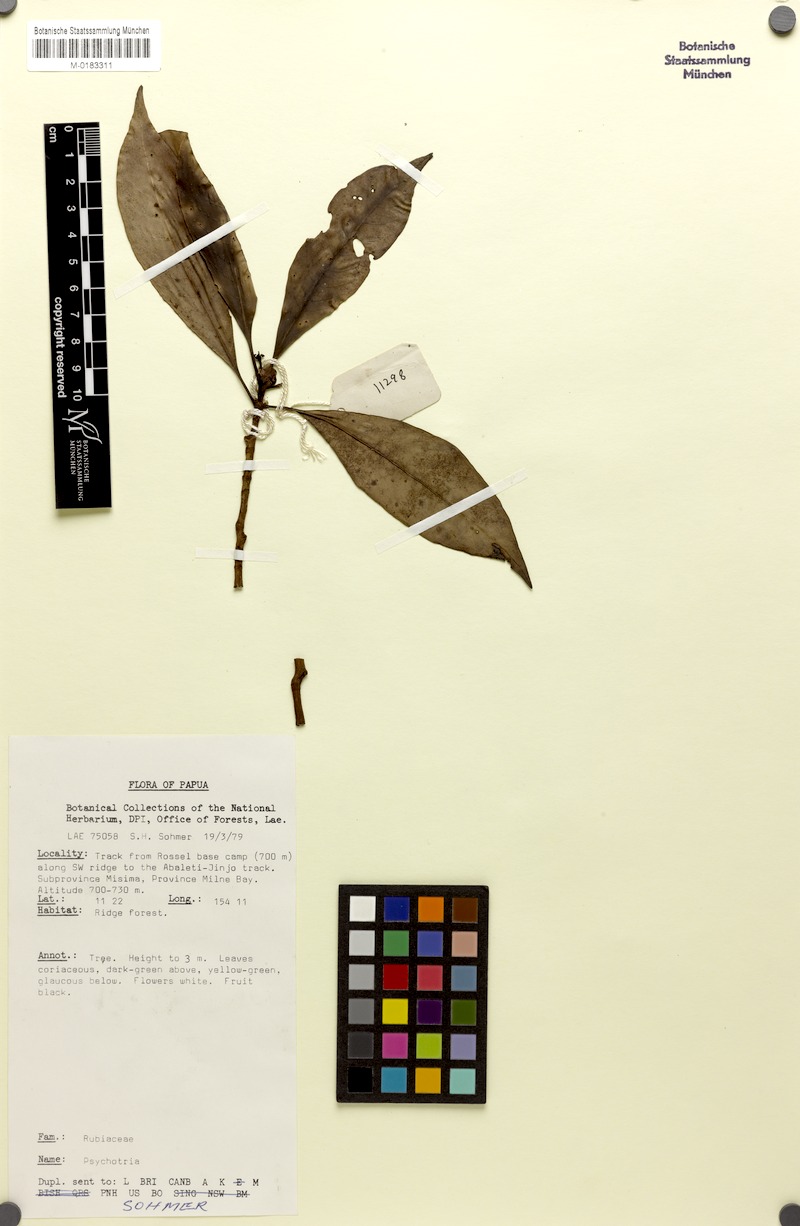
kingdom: Plantae
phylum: Tracheophyta
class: Magnoliopsida
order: Gentianales
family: Rubiaceae
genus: Psychotria
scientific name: Psychotria rosseliensis
